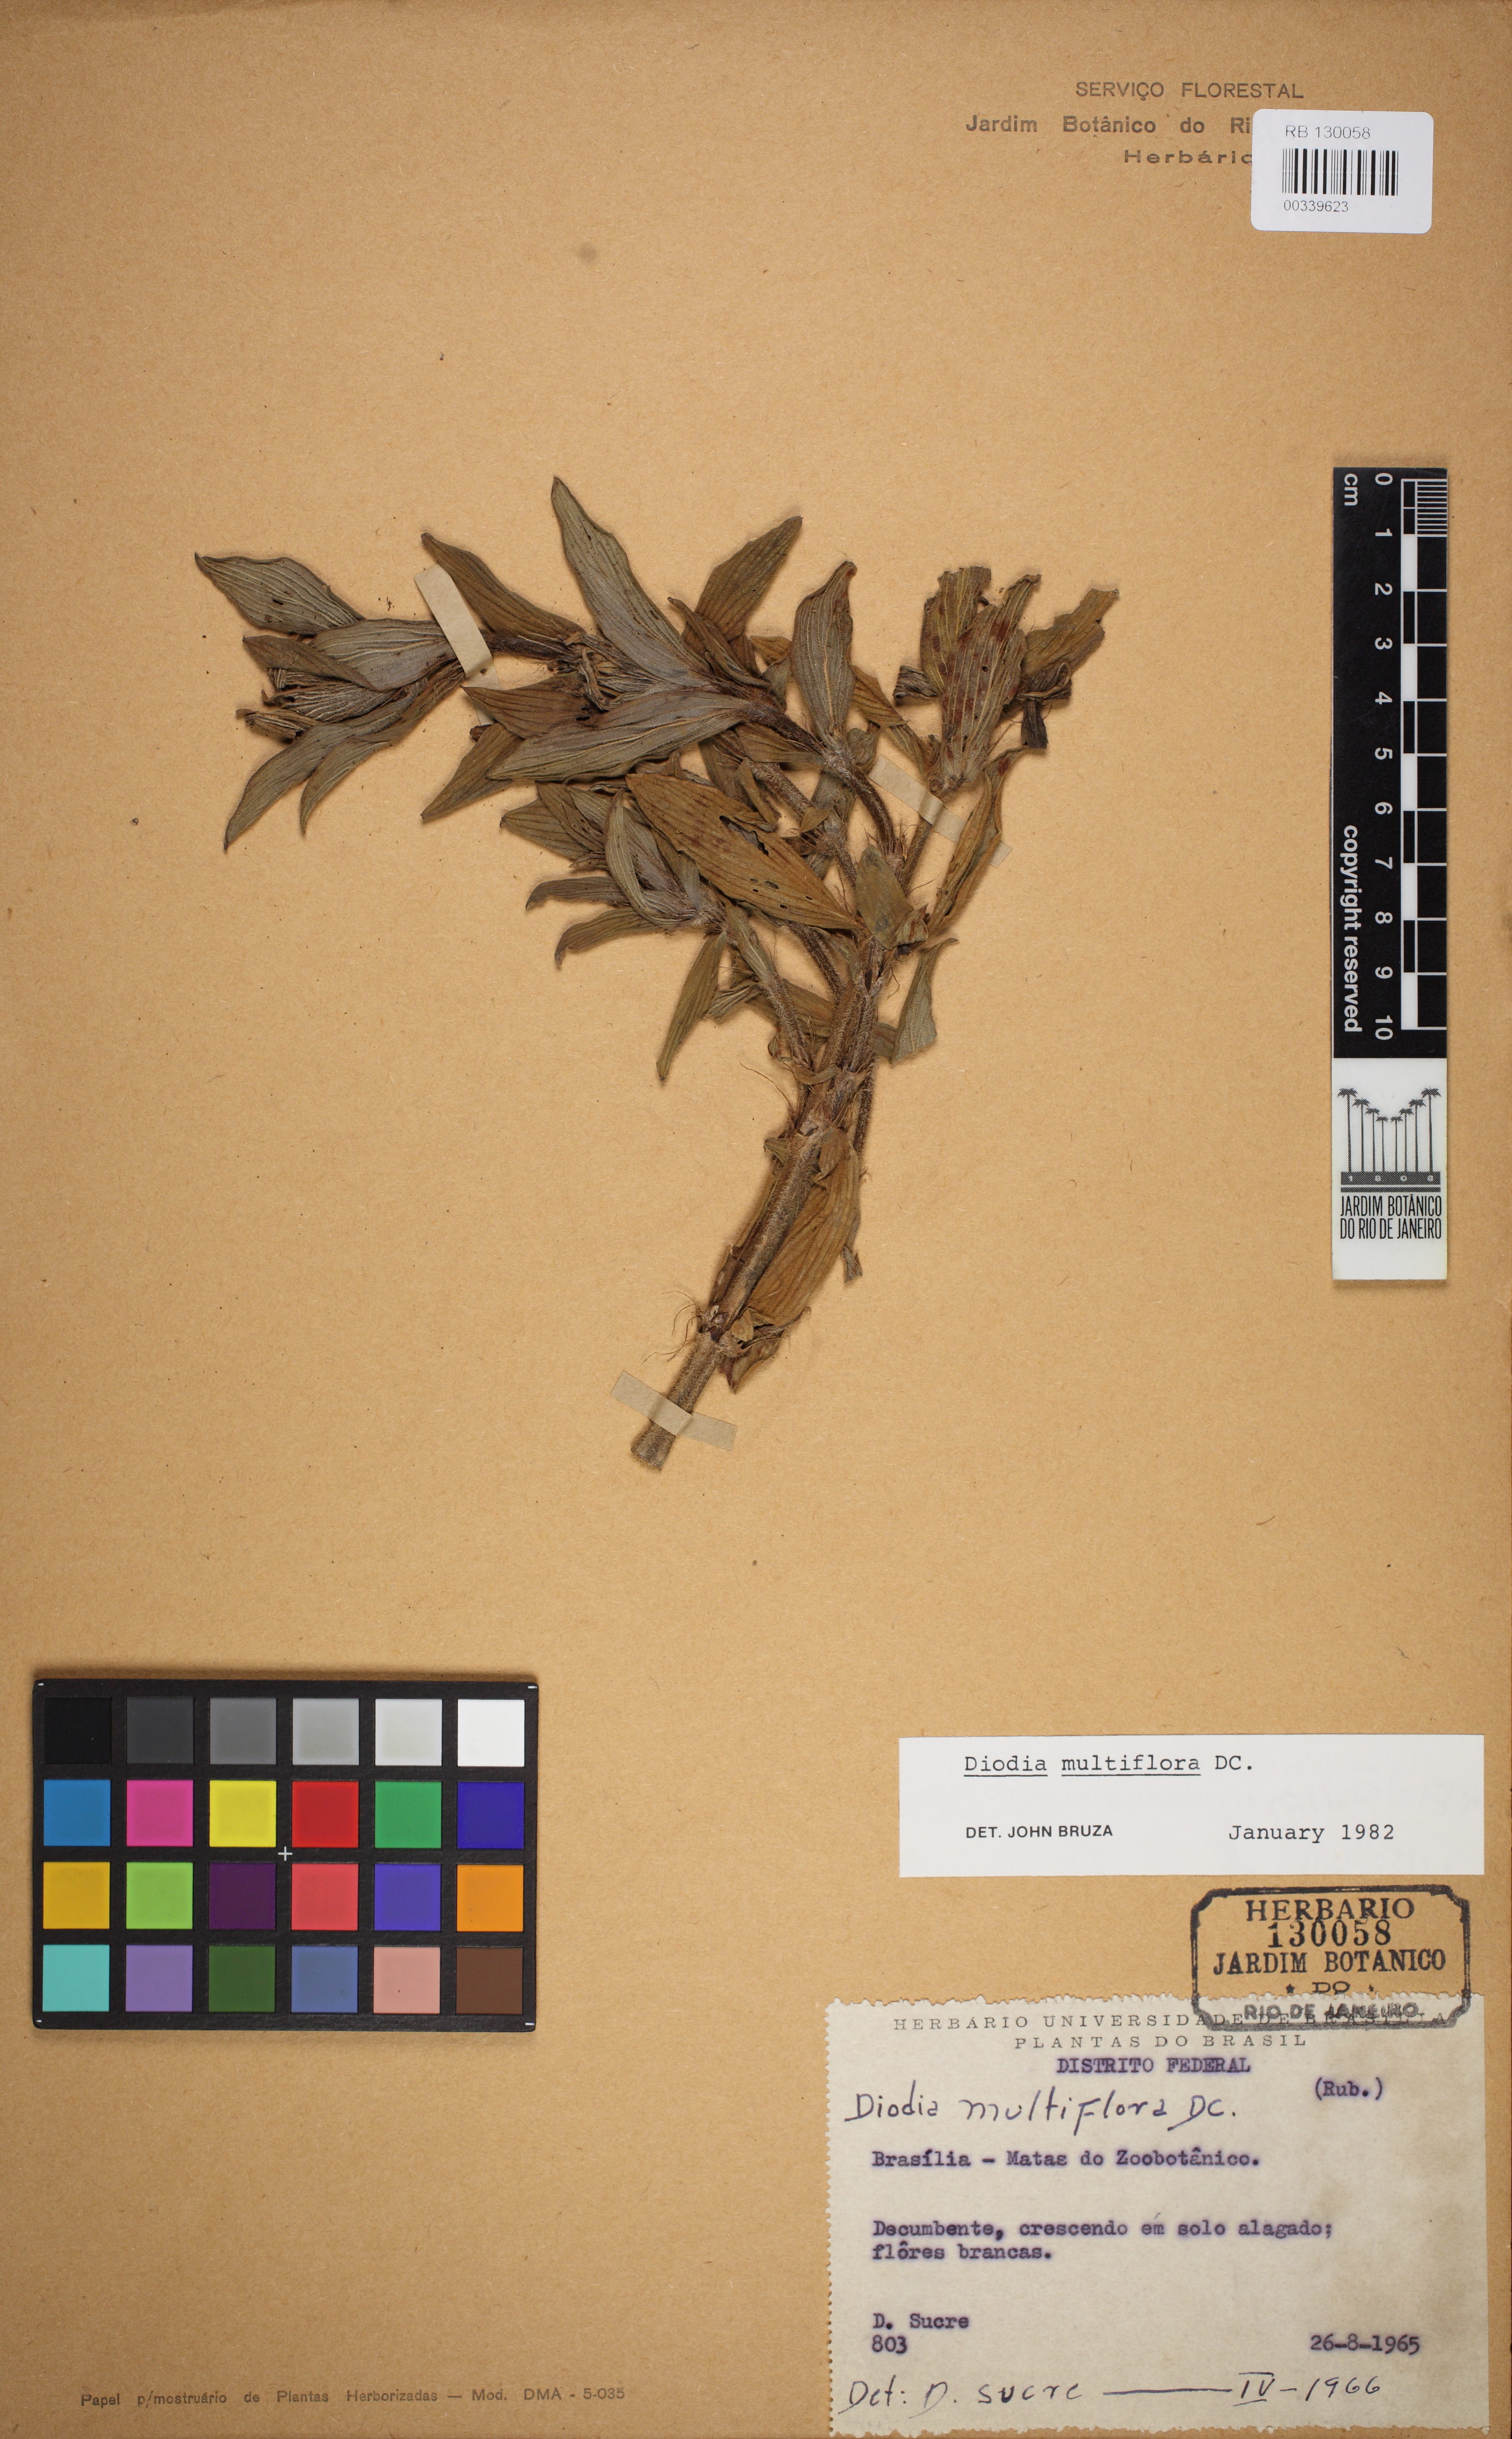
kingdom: Plantae
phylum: Tracheophyta
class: Magnoliopsida
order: Gentianales
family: Rubiaceae
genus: Spermacoce
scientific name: Spermacoce multiflora
